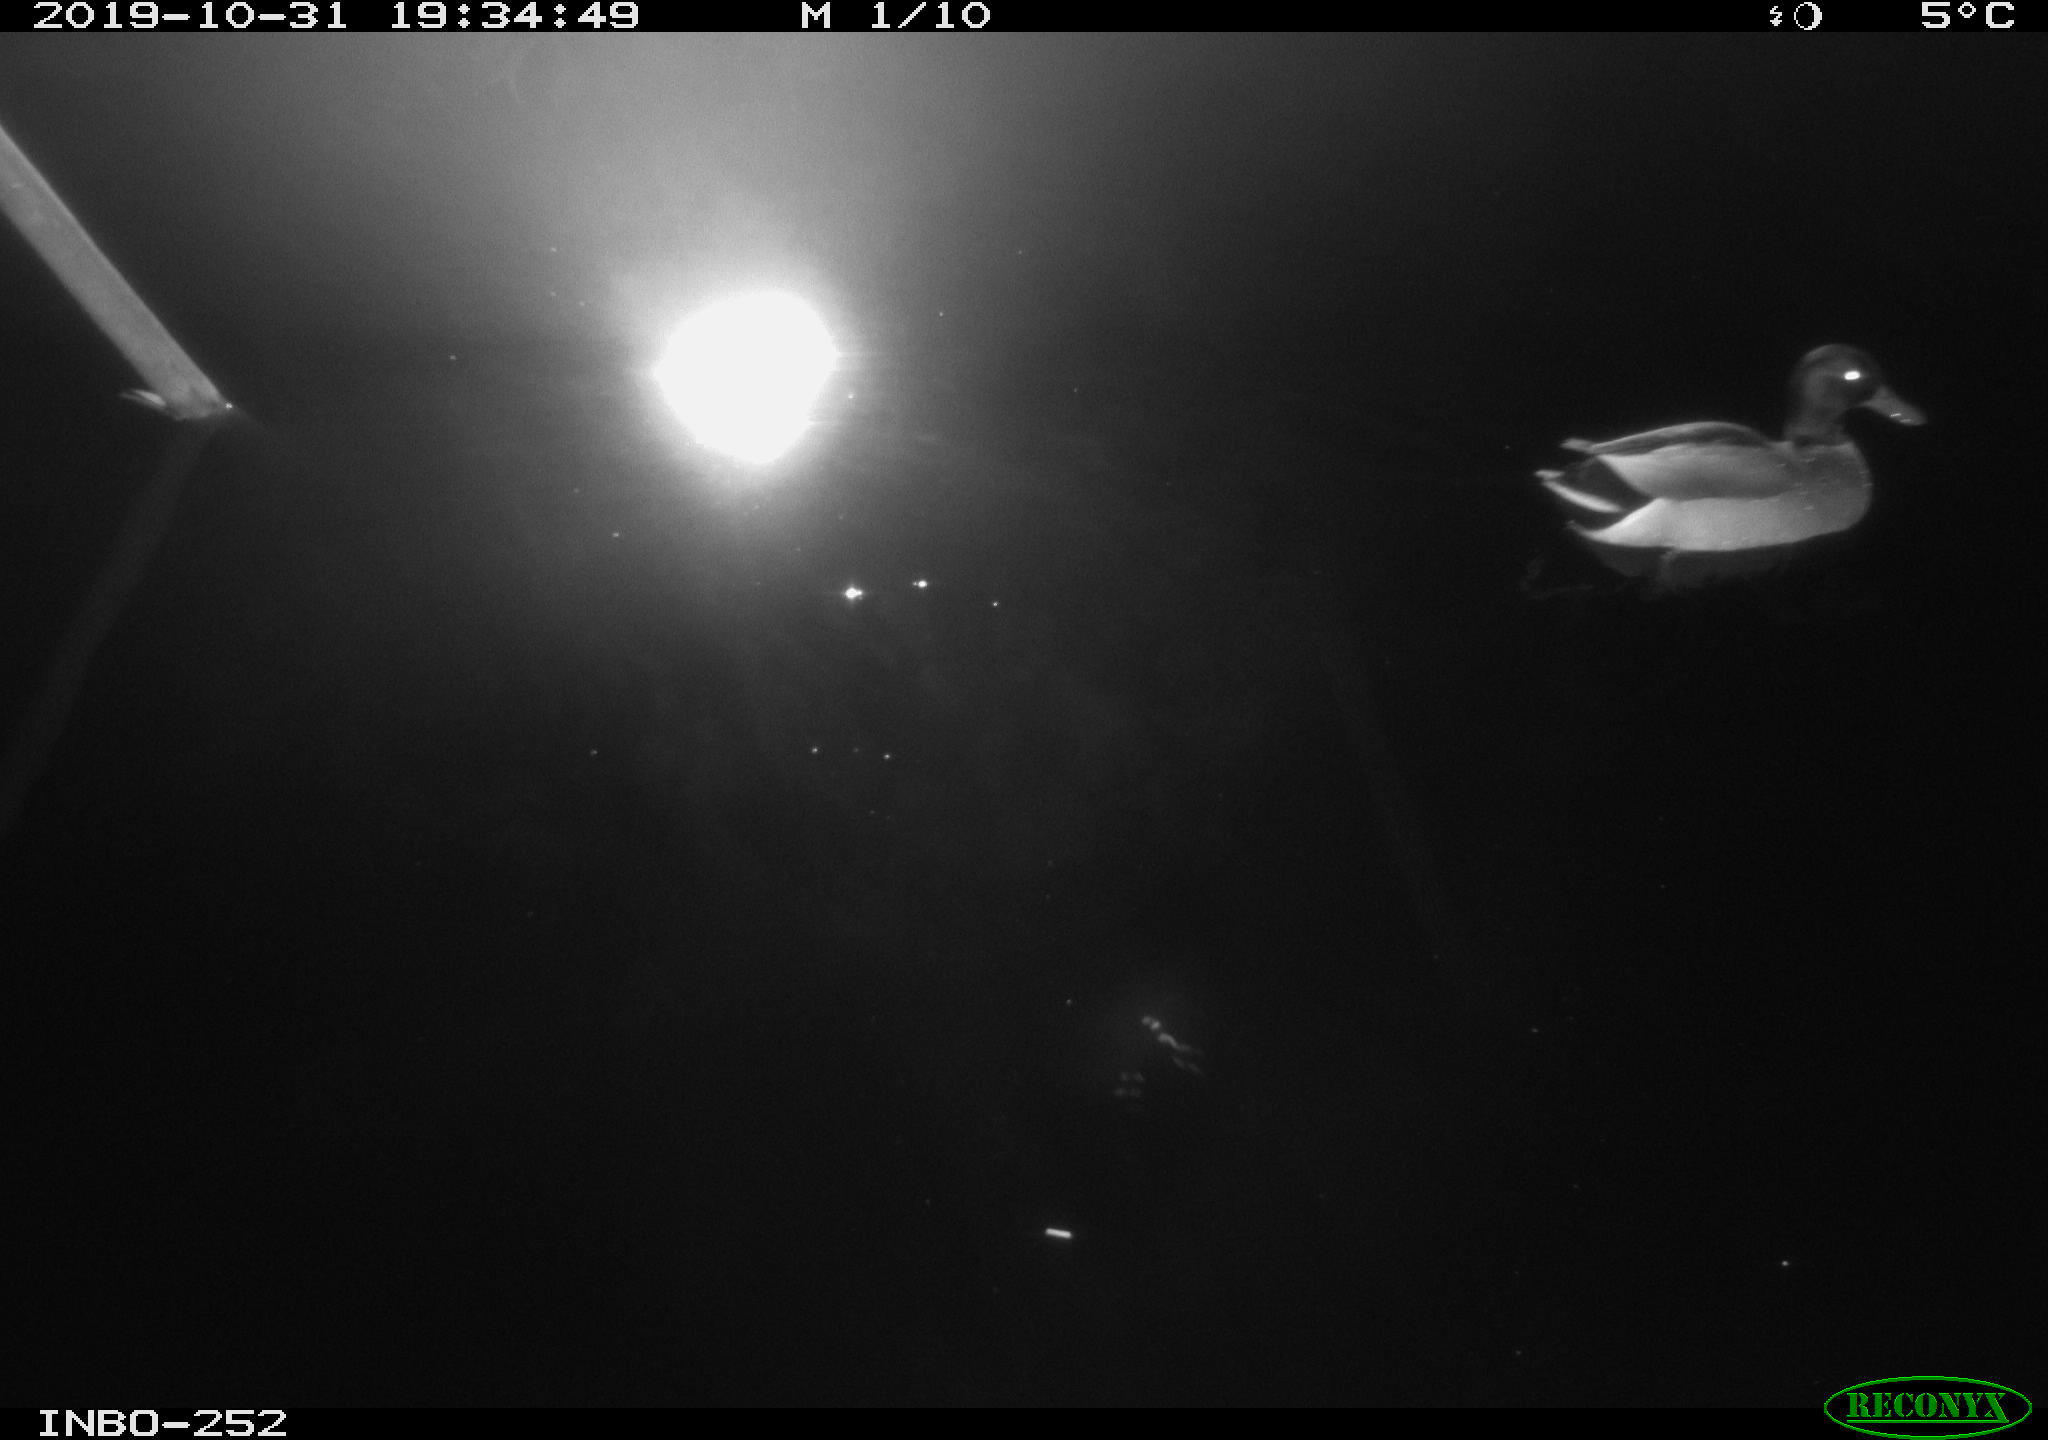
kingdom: Animalia
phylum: Chordata
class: Aves
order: Anseriformes
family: Anatidae
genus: Anas
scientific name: Anas platyrhynchos
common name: Mallard
